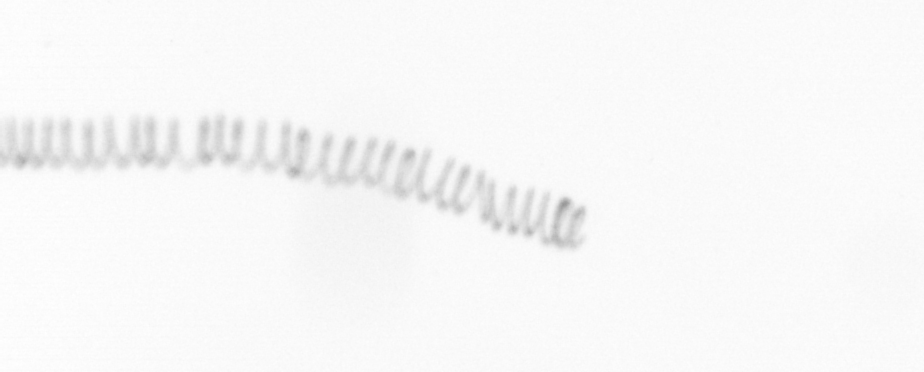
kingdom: Chromista
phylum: Ochrophyta
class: Bacillariophyceae
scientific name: Bacillariophyceae
